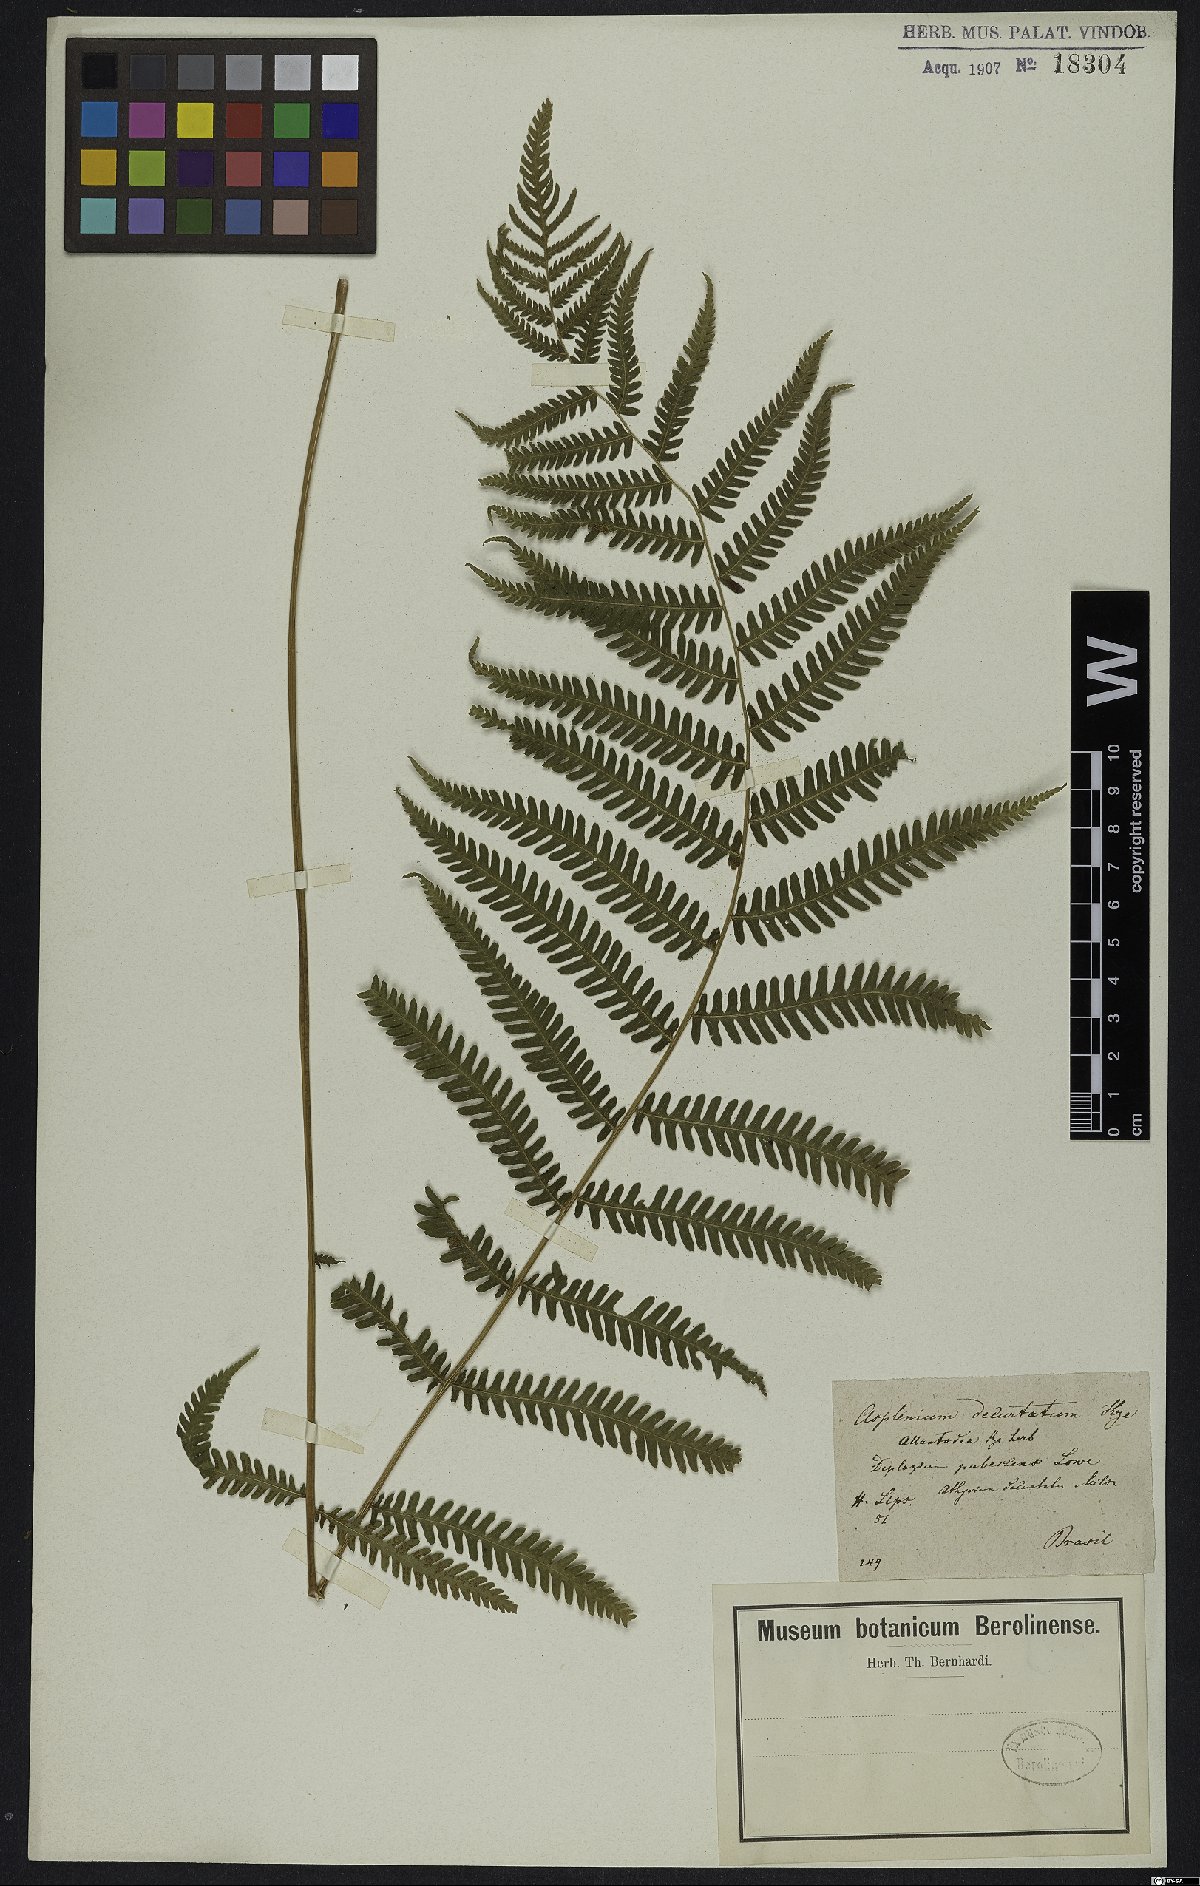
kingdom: Plantae
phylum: Tracheophyta
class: Polypodiopsida
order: Polypodiales
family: Thelypteridaceae
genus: Amauropelta
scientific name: Amauropelta decurtata
